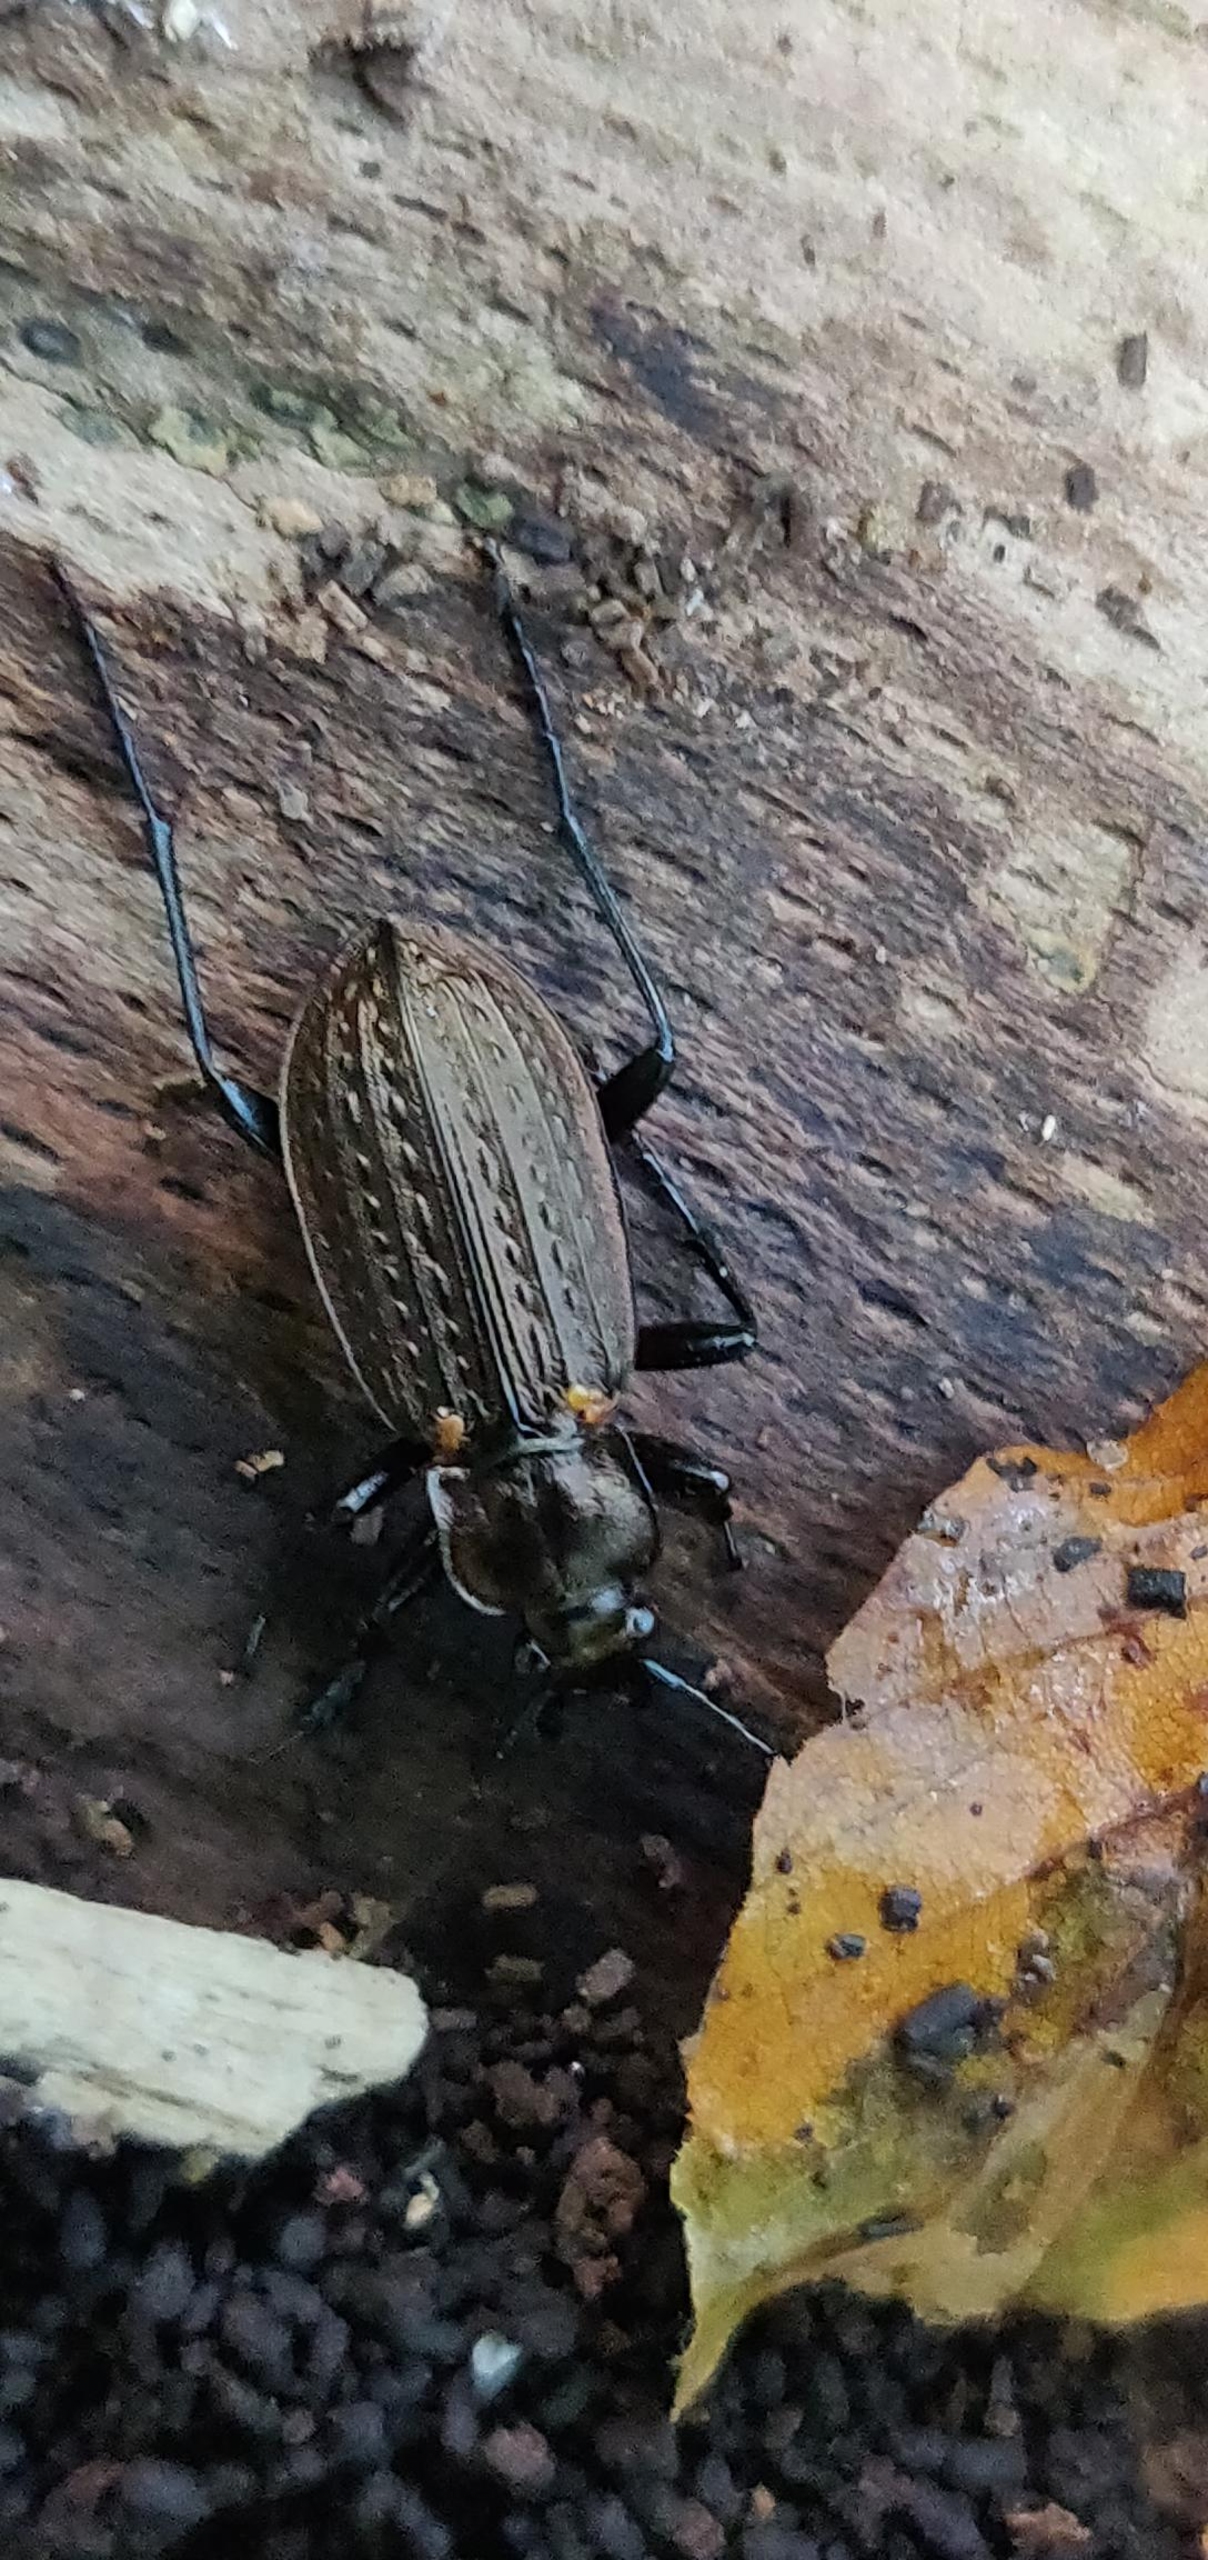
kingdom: Animalia
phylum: Arthropoda
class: Insecta
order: Coleoptera
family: Carabidae
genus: Carabus
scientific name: Carabus granulatus
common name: Kornet løber
